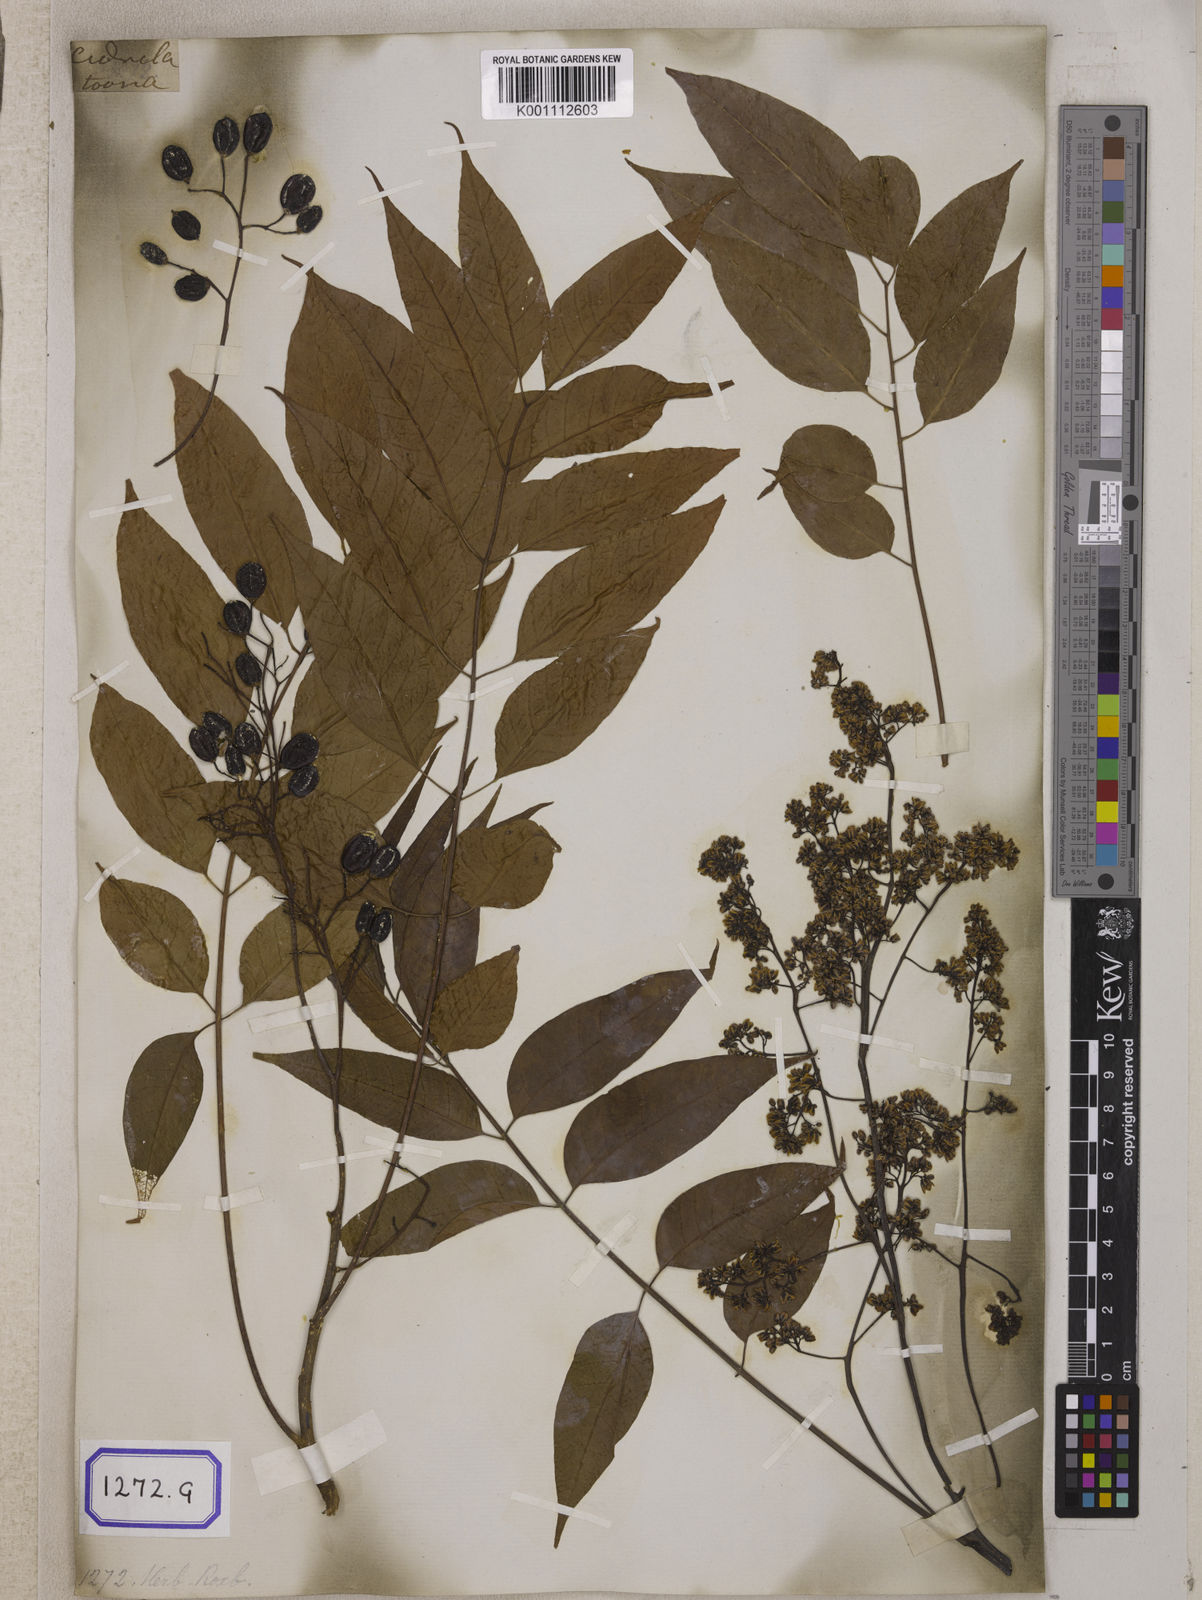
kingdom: Plantae
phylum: Tracheophyta
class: Magnoliopsida
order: Sapindales
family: Meliaceae
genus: Cedrela
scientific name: Cedrela
